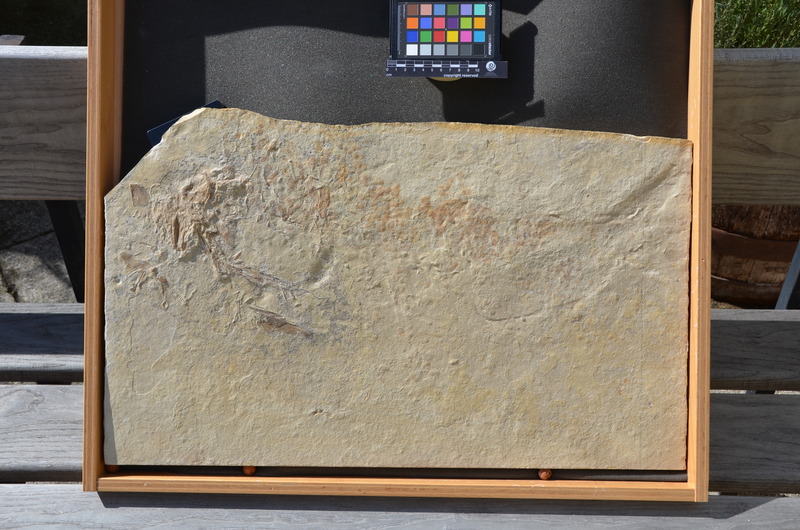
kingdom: Animalia
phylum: Chordata
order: Amiiformes
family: Caturidae
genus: Caturus
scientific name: Caturus
